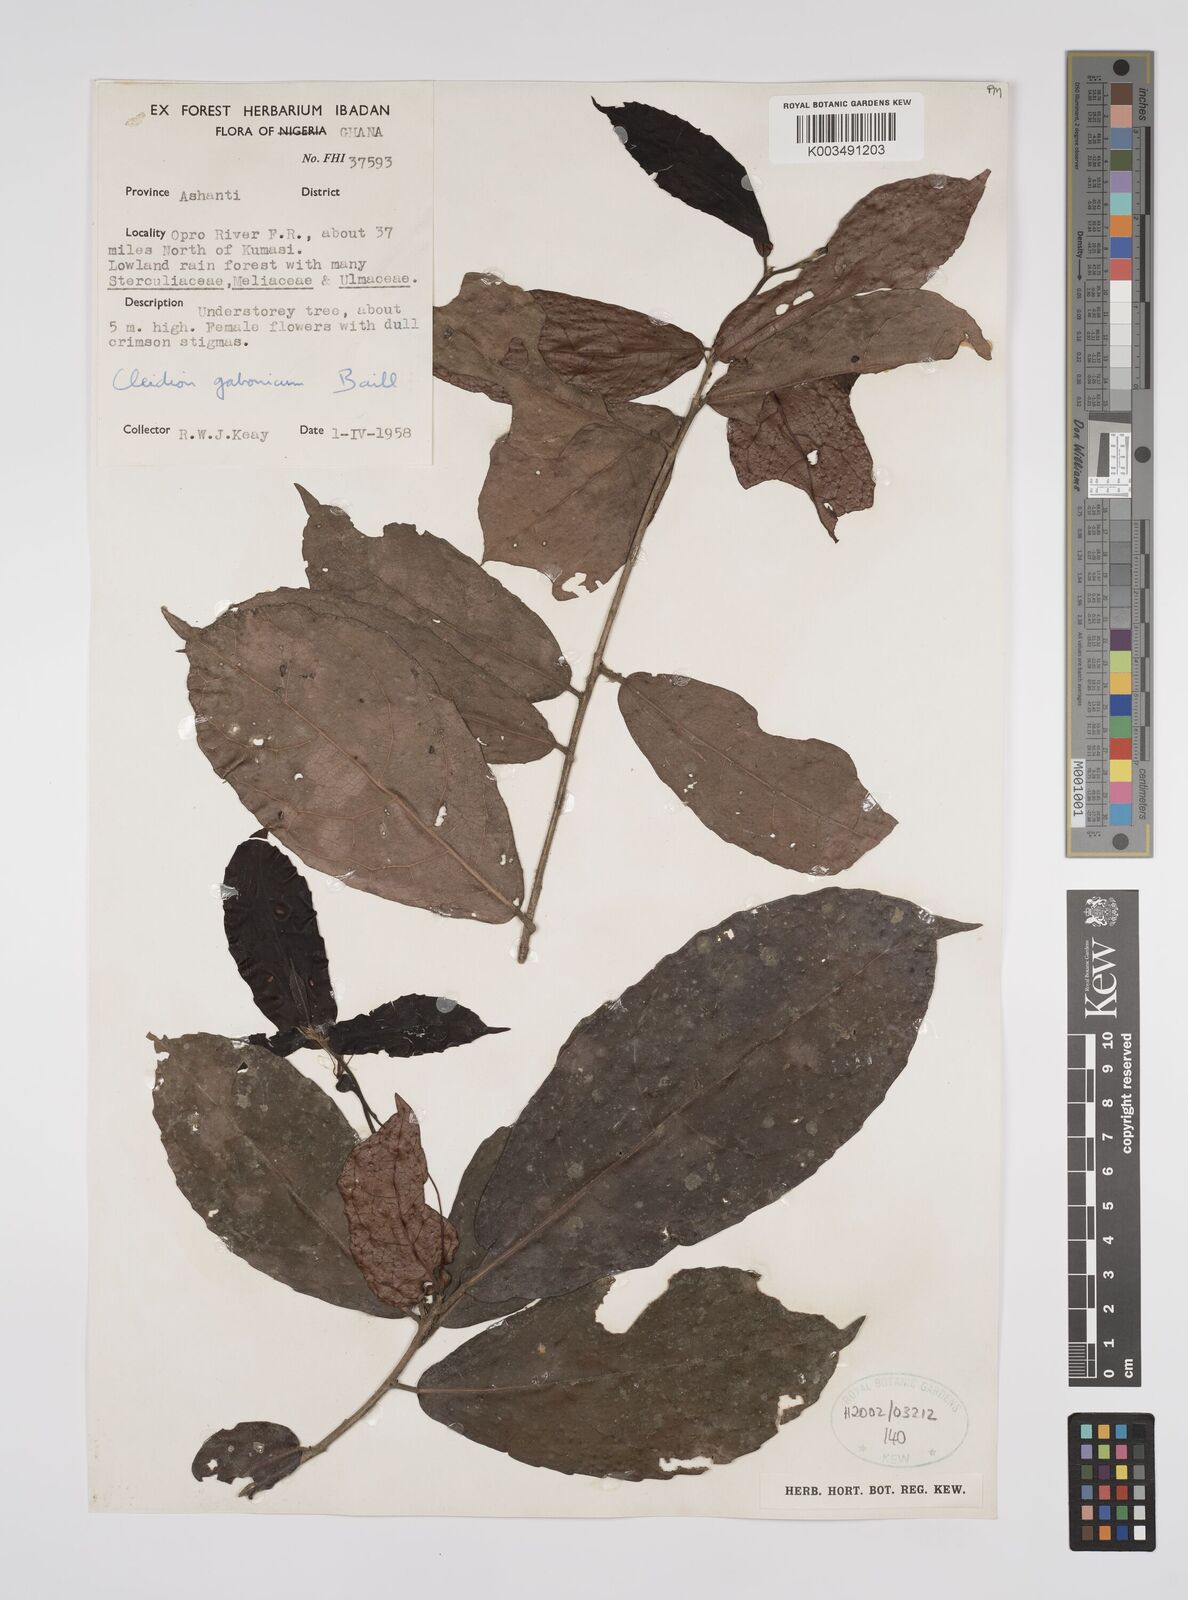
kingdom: Plantae
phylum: Tracheophyta
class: Magnoliopsida
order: Malpighiales
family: Euphorbiaceae
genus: Cleidion
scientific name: Cleidion gabonicum
